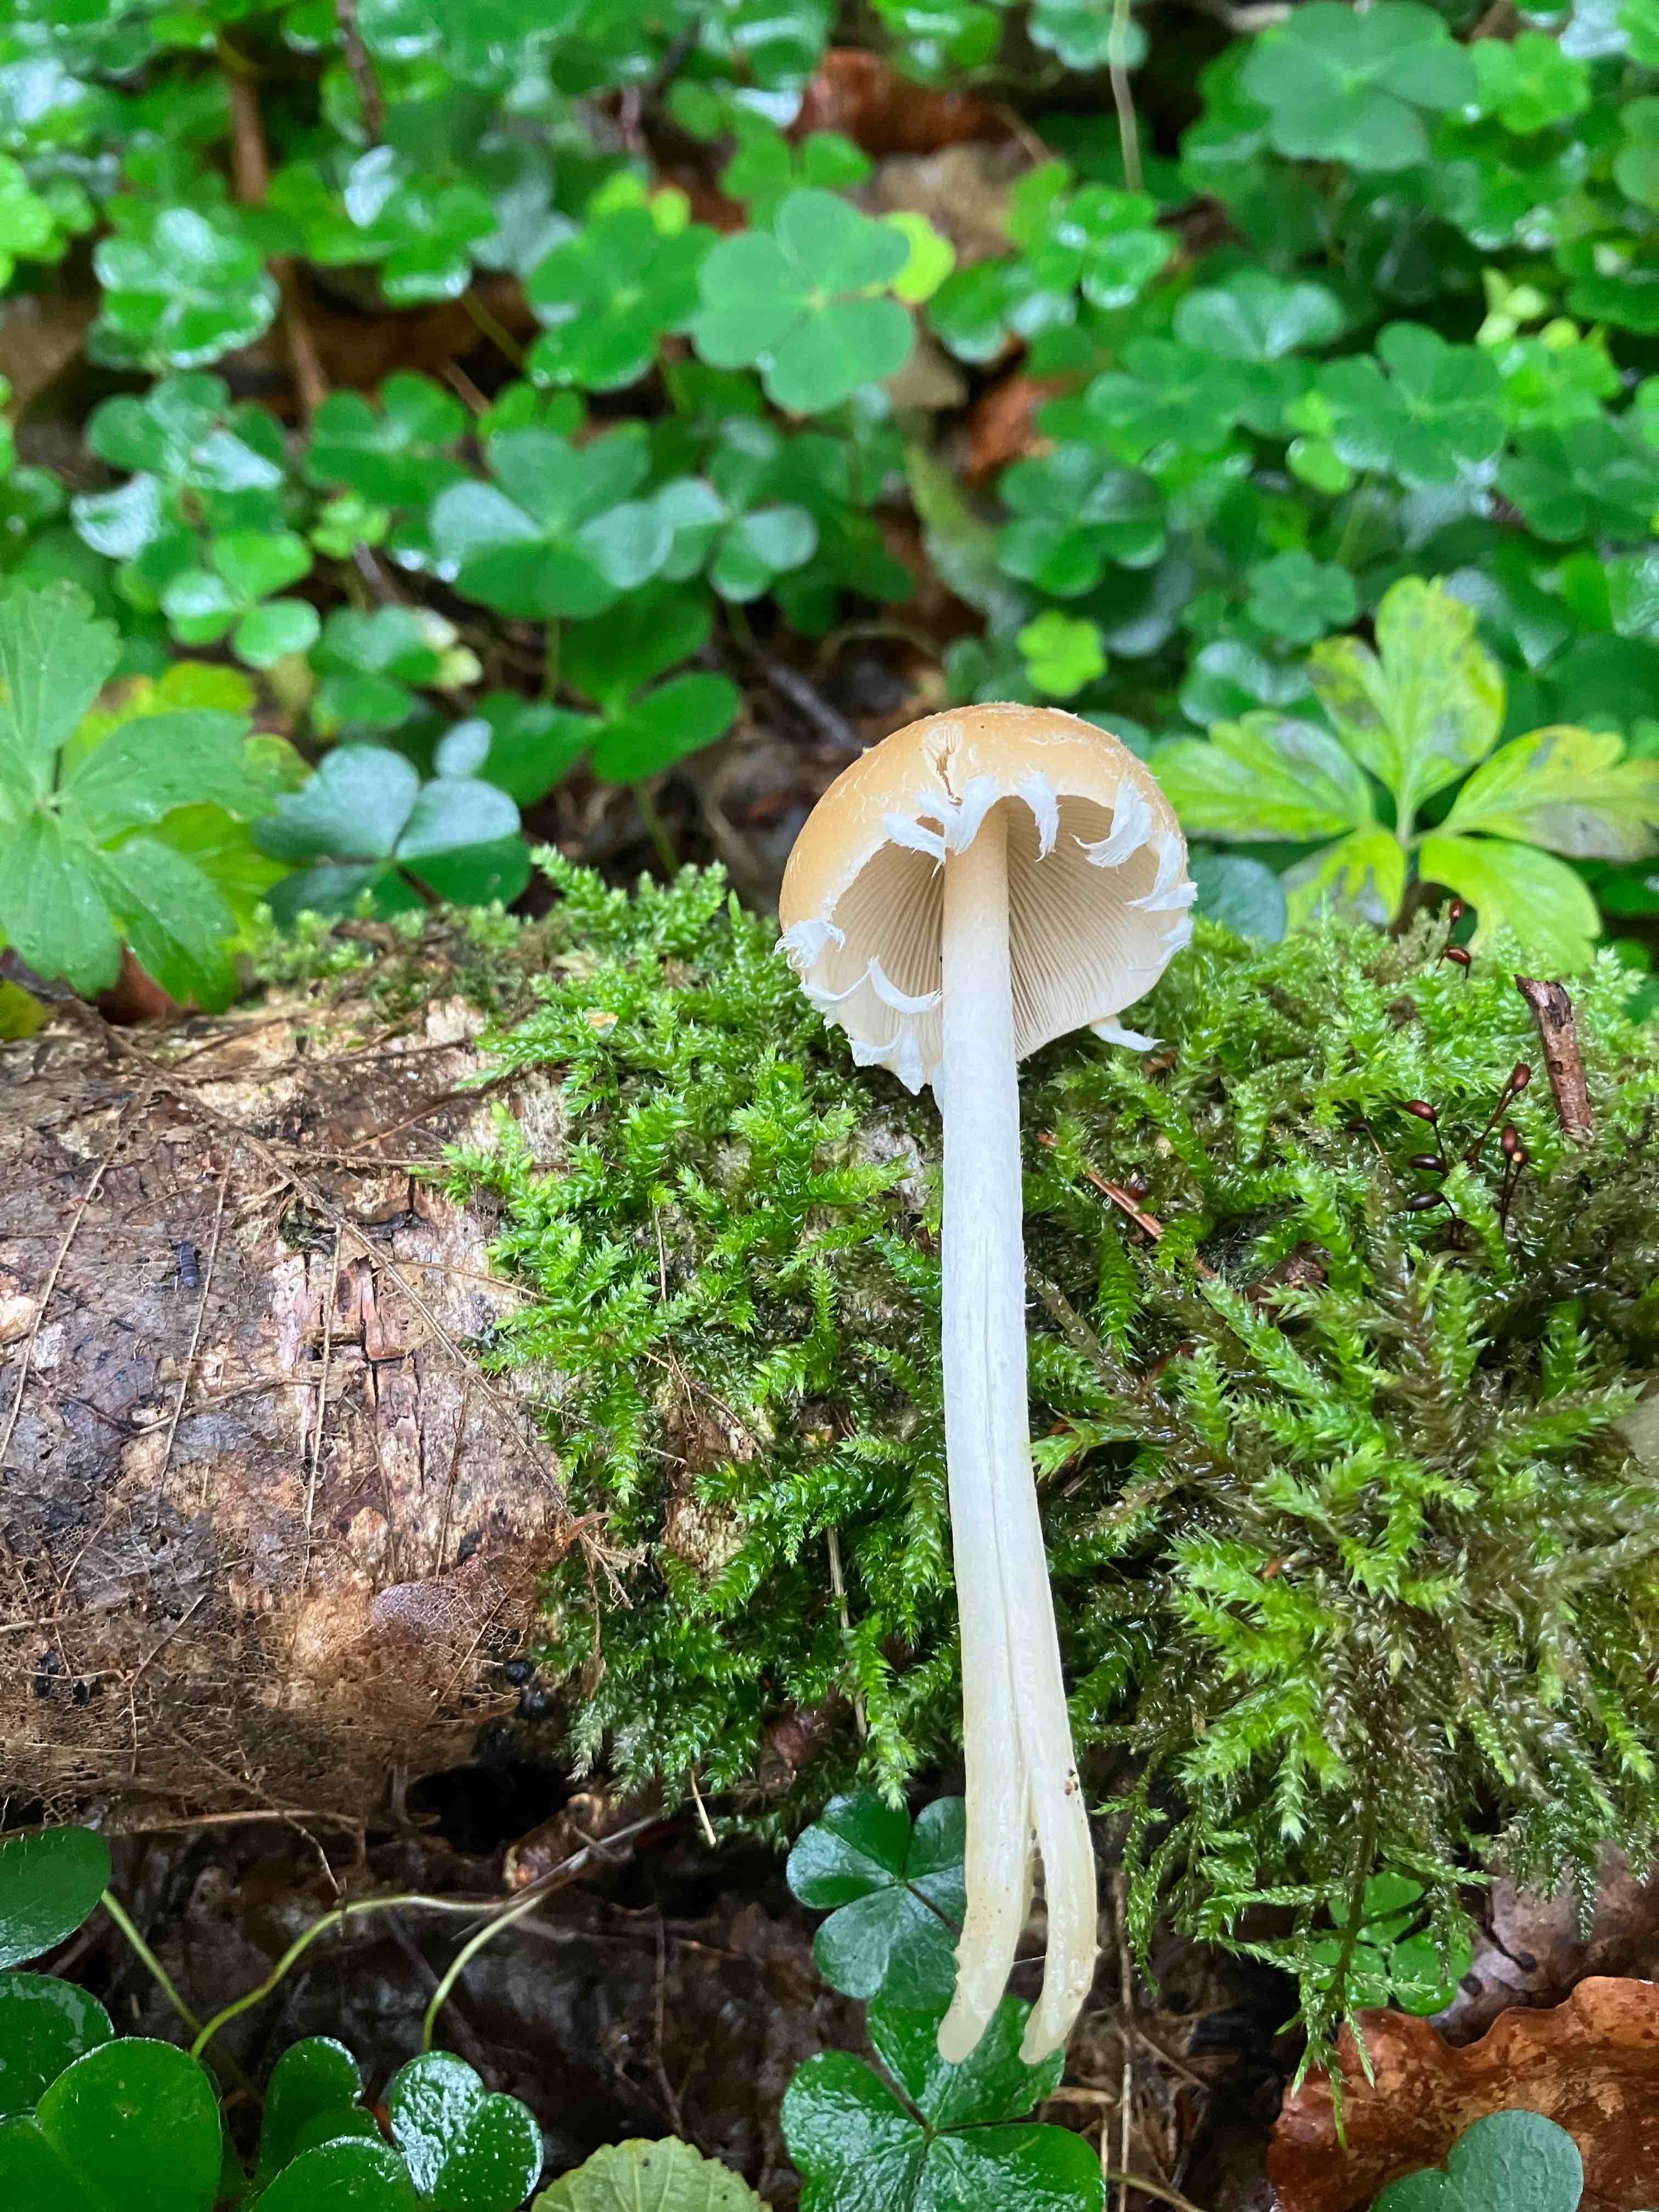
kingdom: Fungi
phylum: Basidiomycota
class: Agaricomycetes
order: Agaricales
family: Psathyrellaceae
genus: Candolleomyces
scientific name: Candolleomyces candolleanus
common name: Candolles mørkhat
